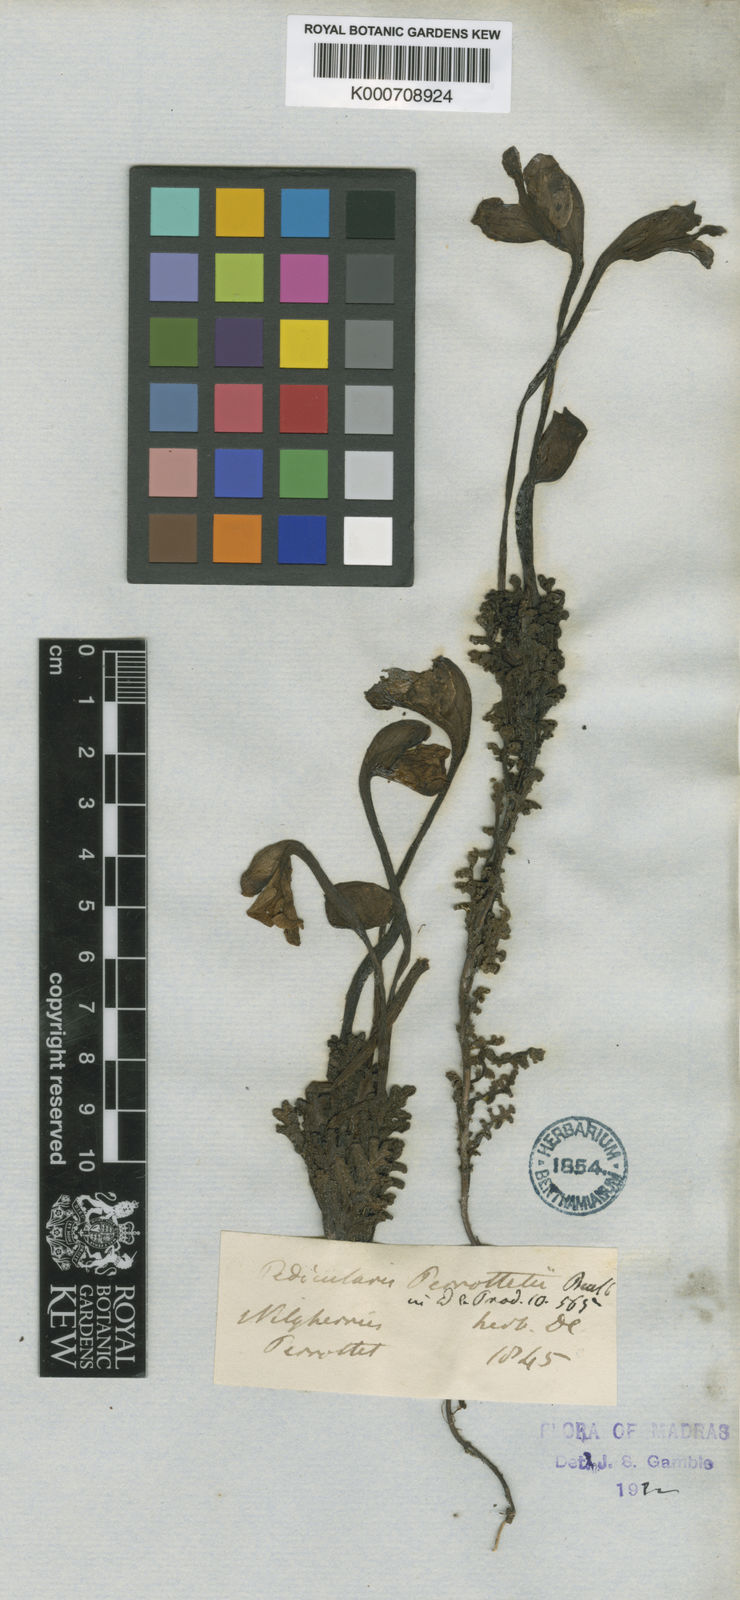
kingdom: Plantae
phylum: Tracheophyta
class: Magnoliopsida
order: Lamiales
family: Orobanchaceae
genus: Pedicularis
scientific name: Pedicularis perrottetii
